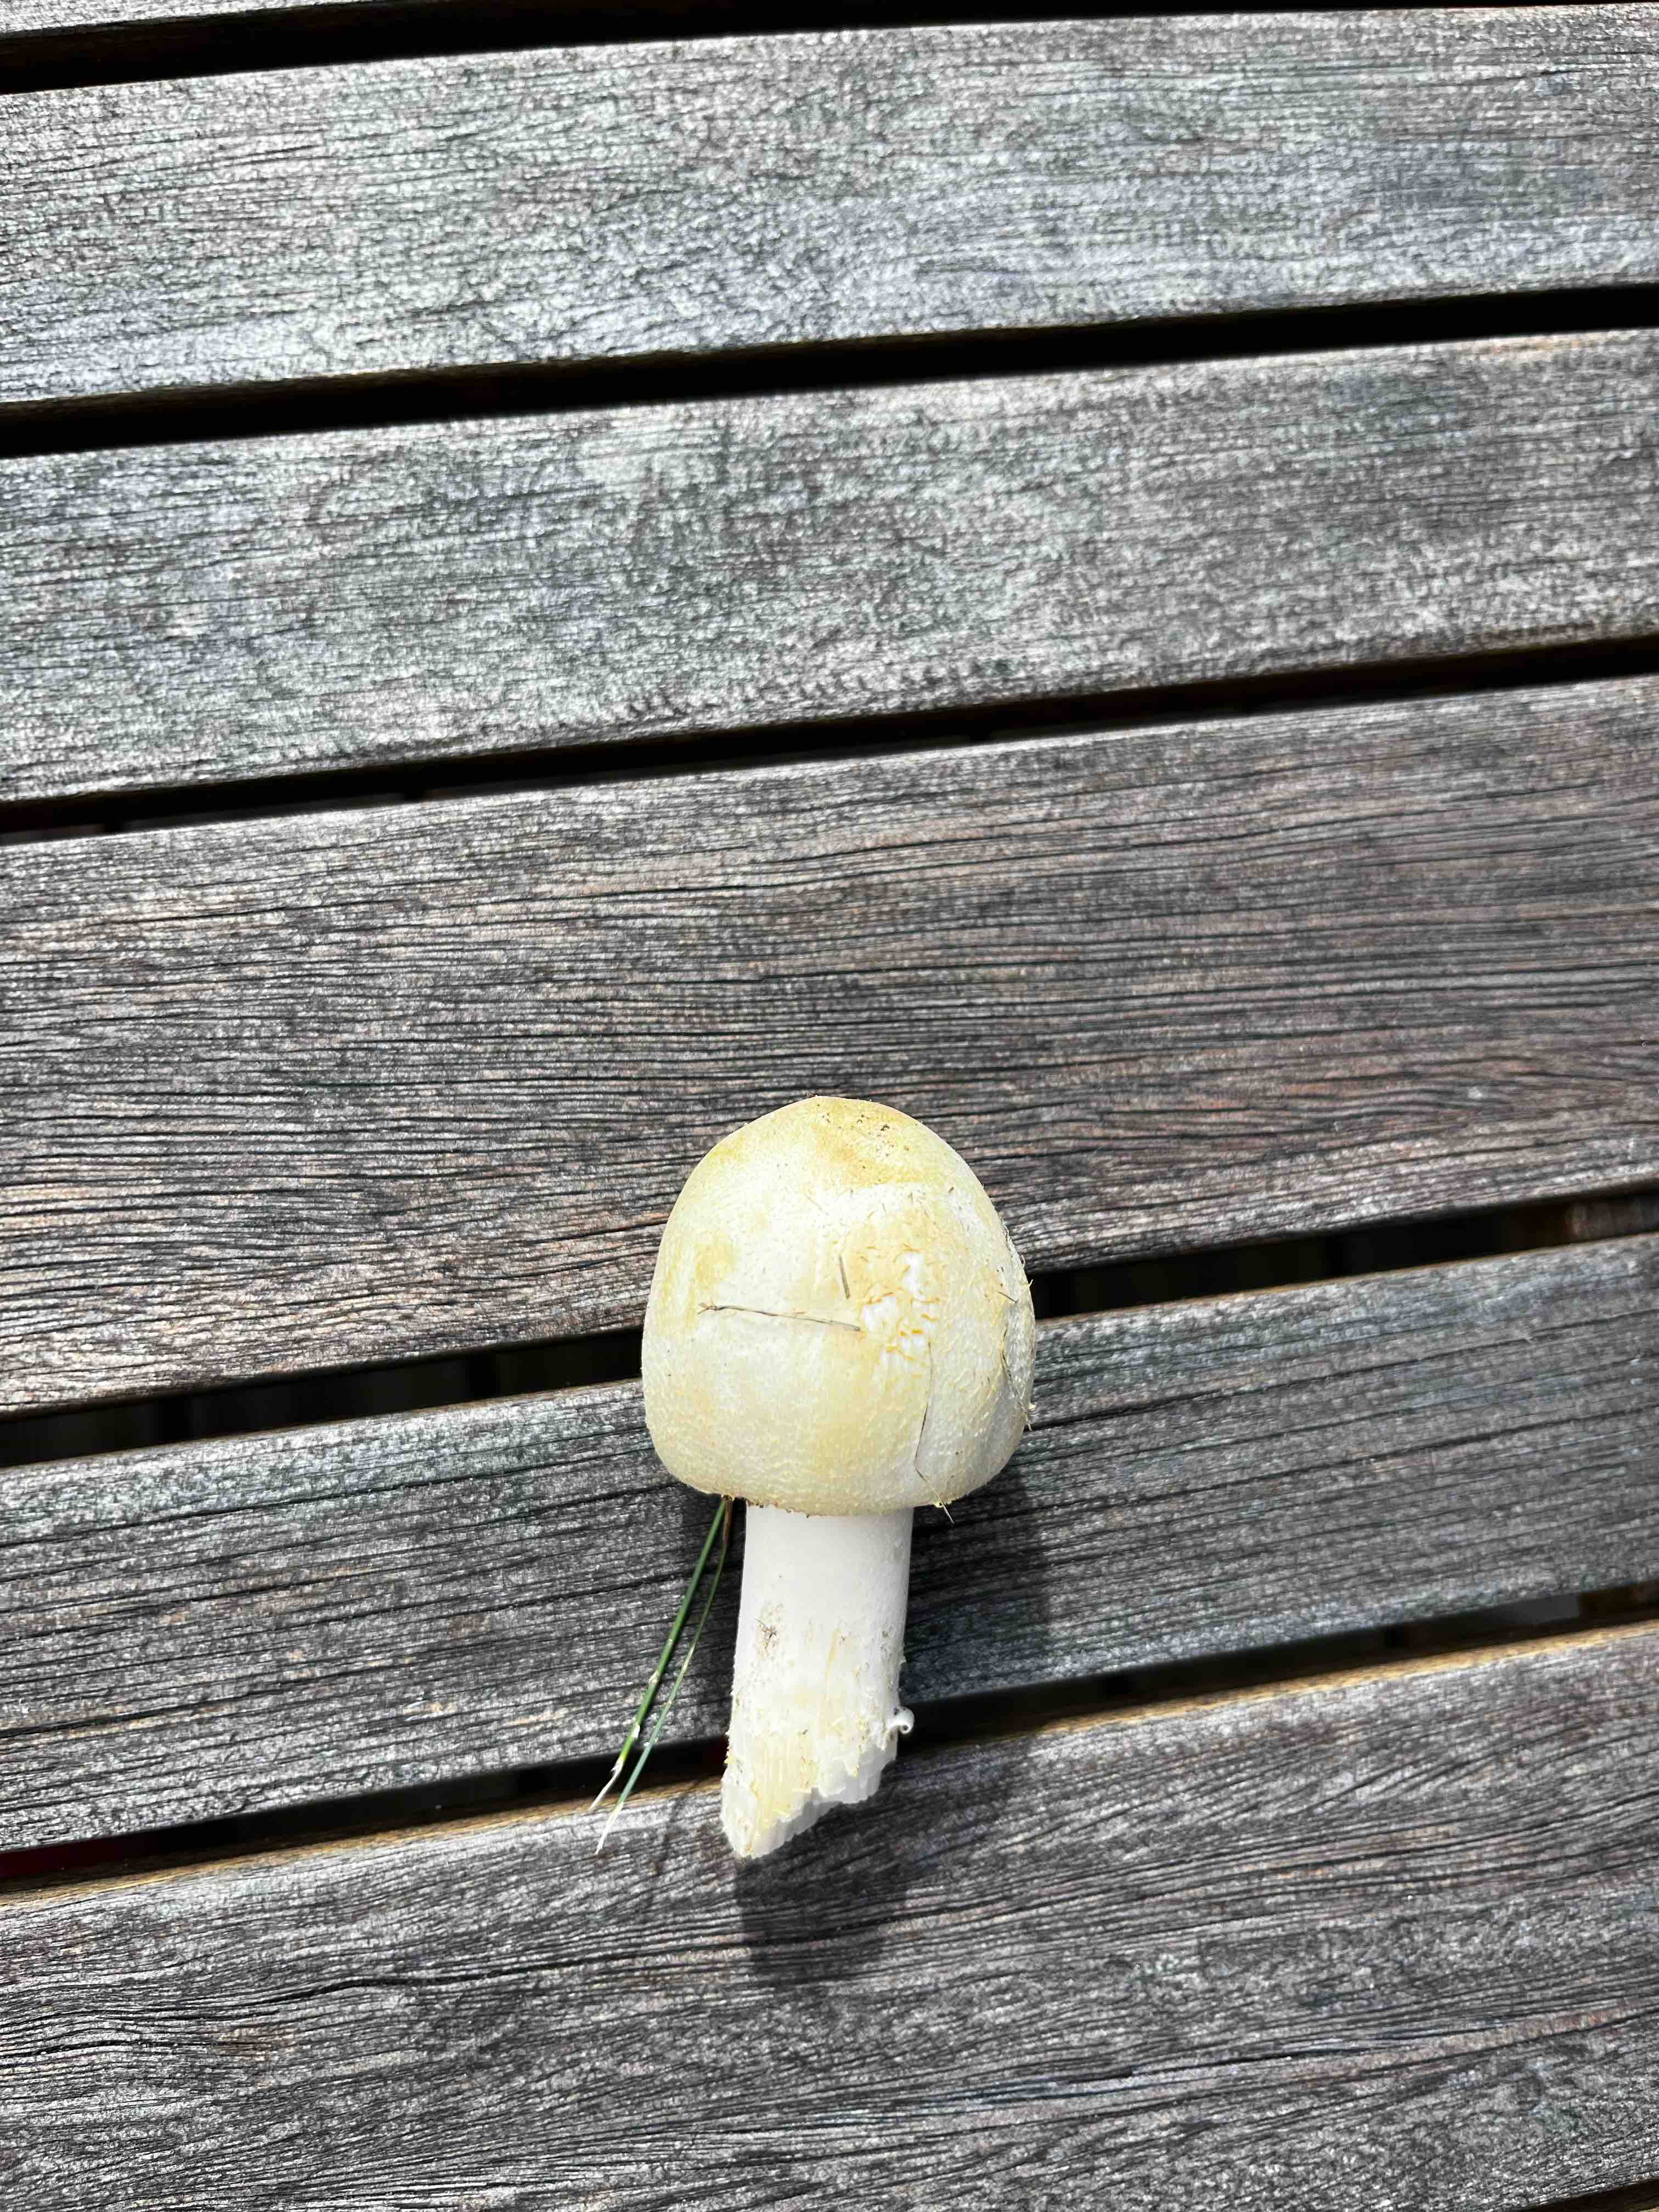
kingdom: Fungi
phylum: Basidiomycota
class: Agaricomycetes
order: Agaricales
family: Agaricaceae
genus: Agaricus
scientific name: Agaricus
